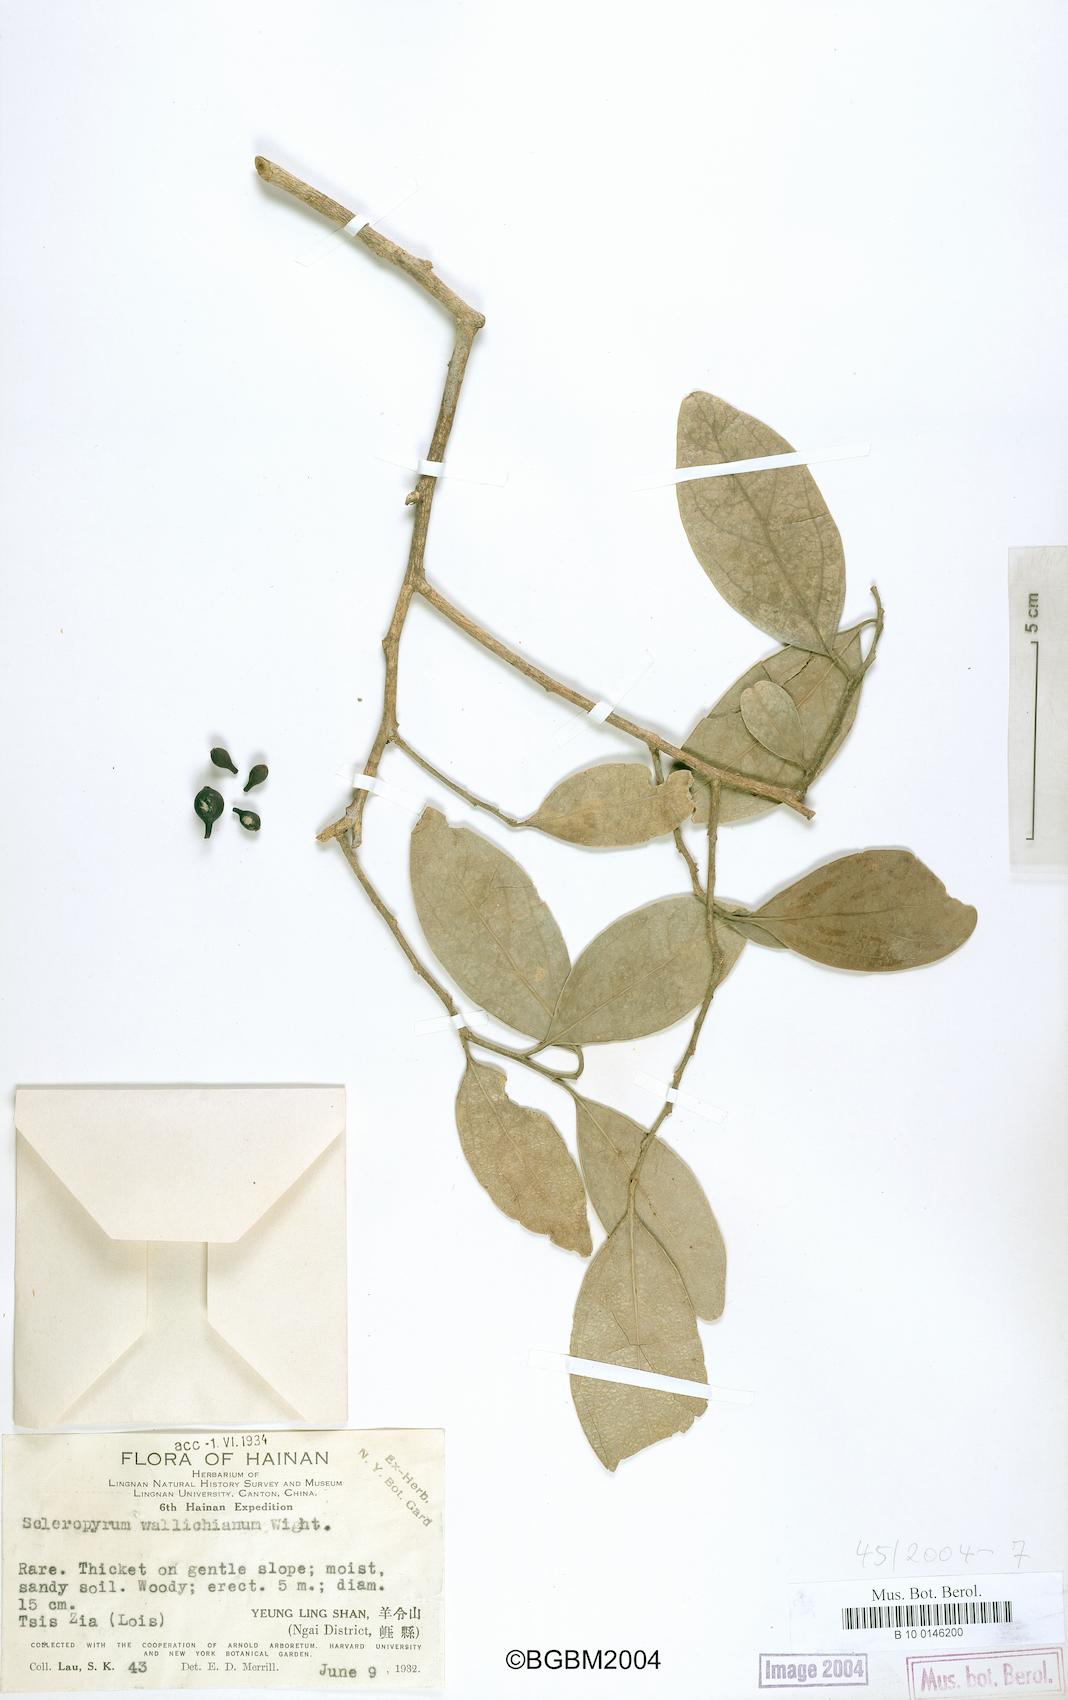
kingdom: Plantae
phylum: Tracheophyta
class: Magnoliopsida
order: Santalales
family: Cervantesiaceae
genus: Scleropyrum
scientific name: Scleropyrum pentandrum
